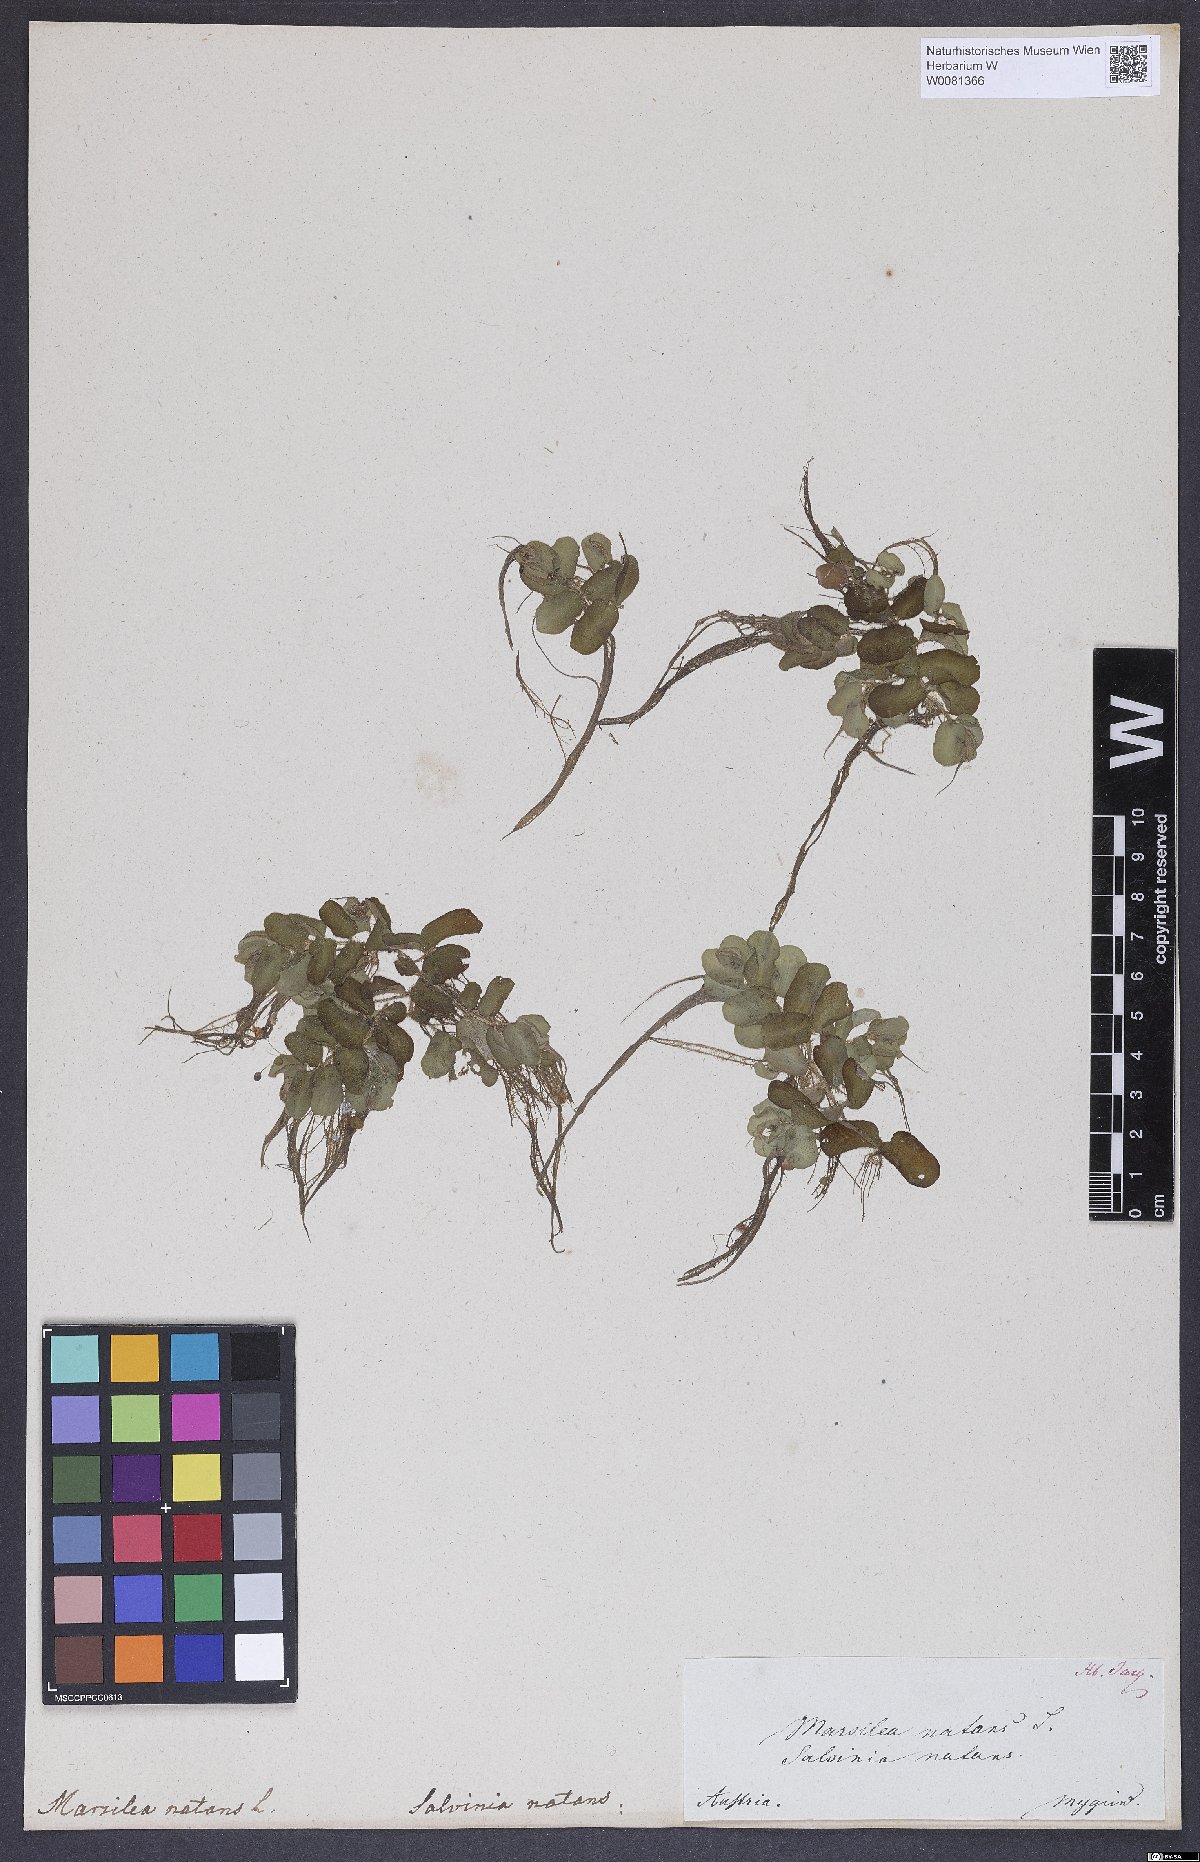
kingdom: Plantae
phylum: Tracheophyta
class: Polypodiopsida
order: Salviniales
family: Salviniaceae
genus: Salvinia
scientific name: Salvinia natans
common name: Floating fern
